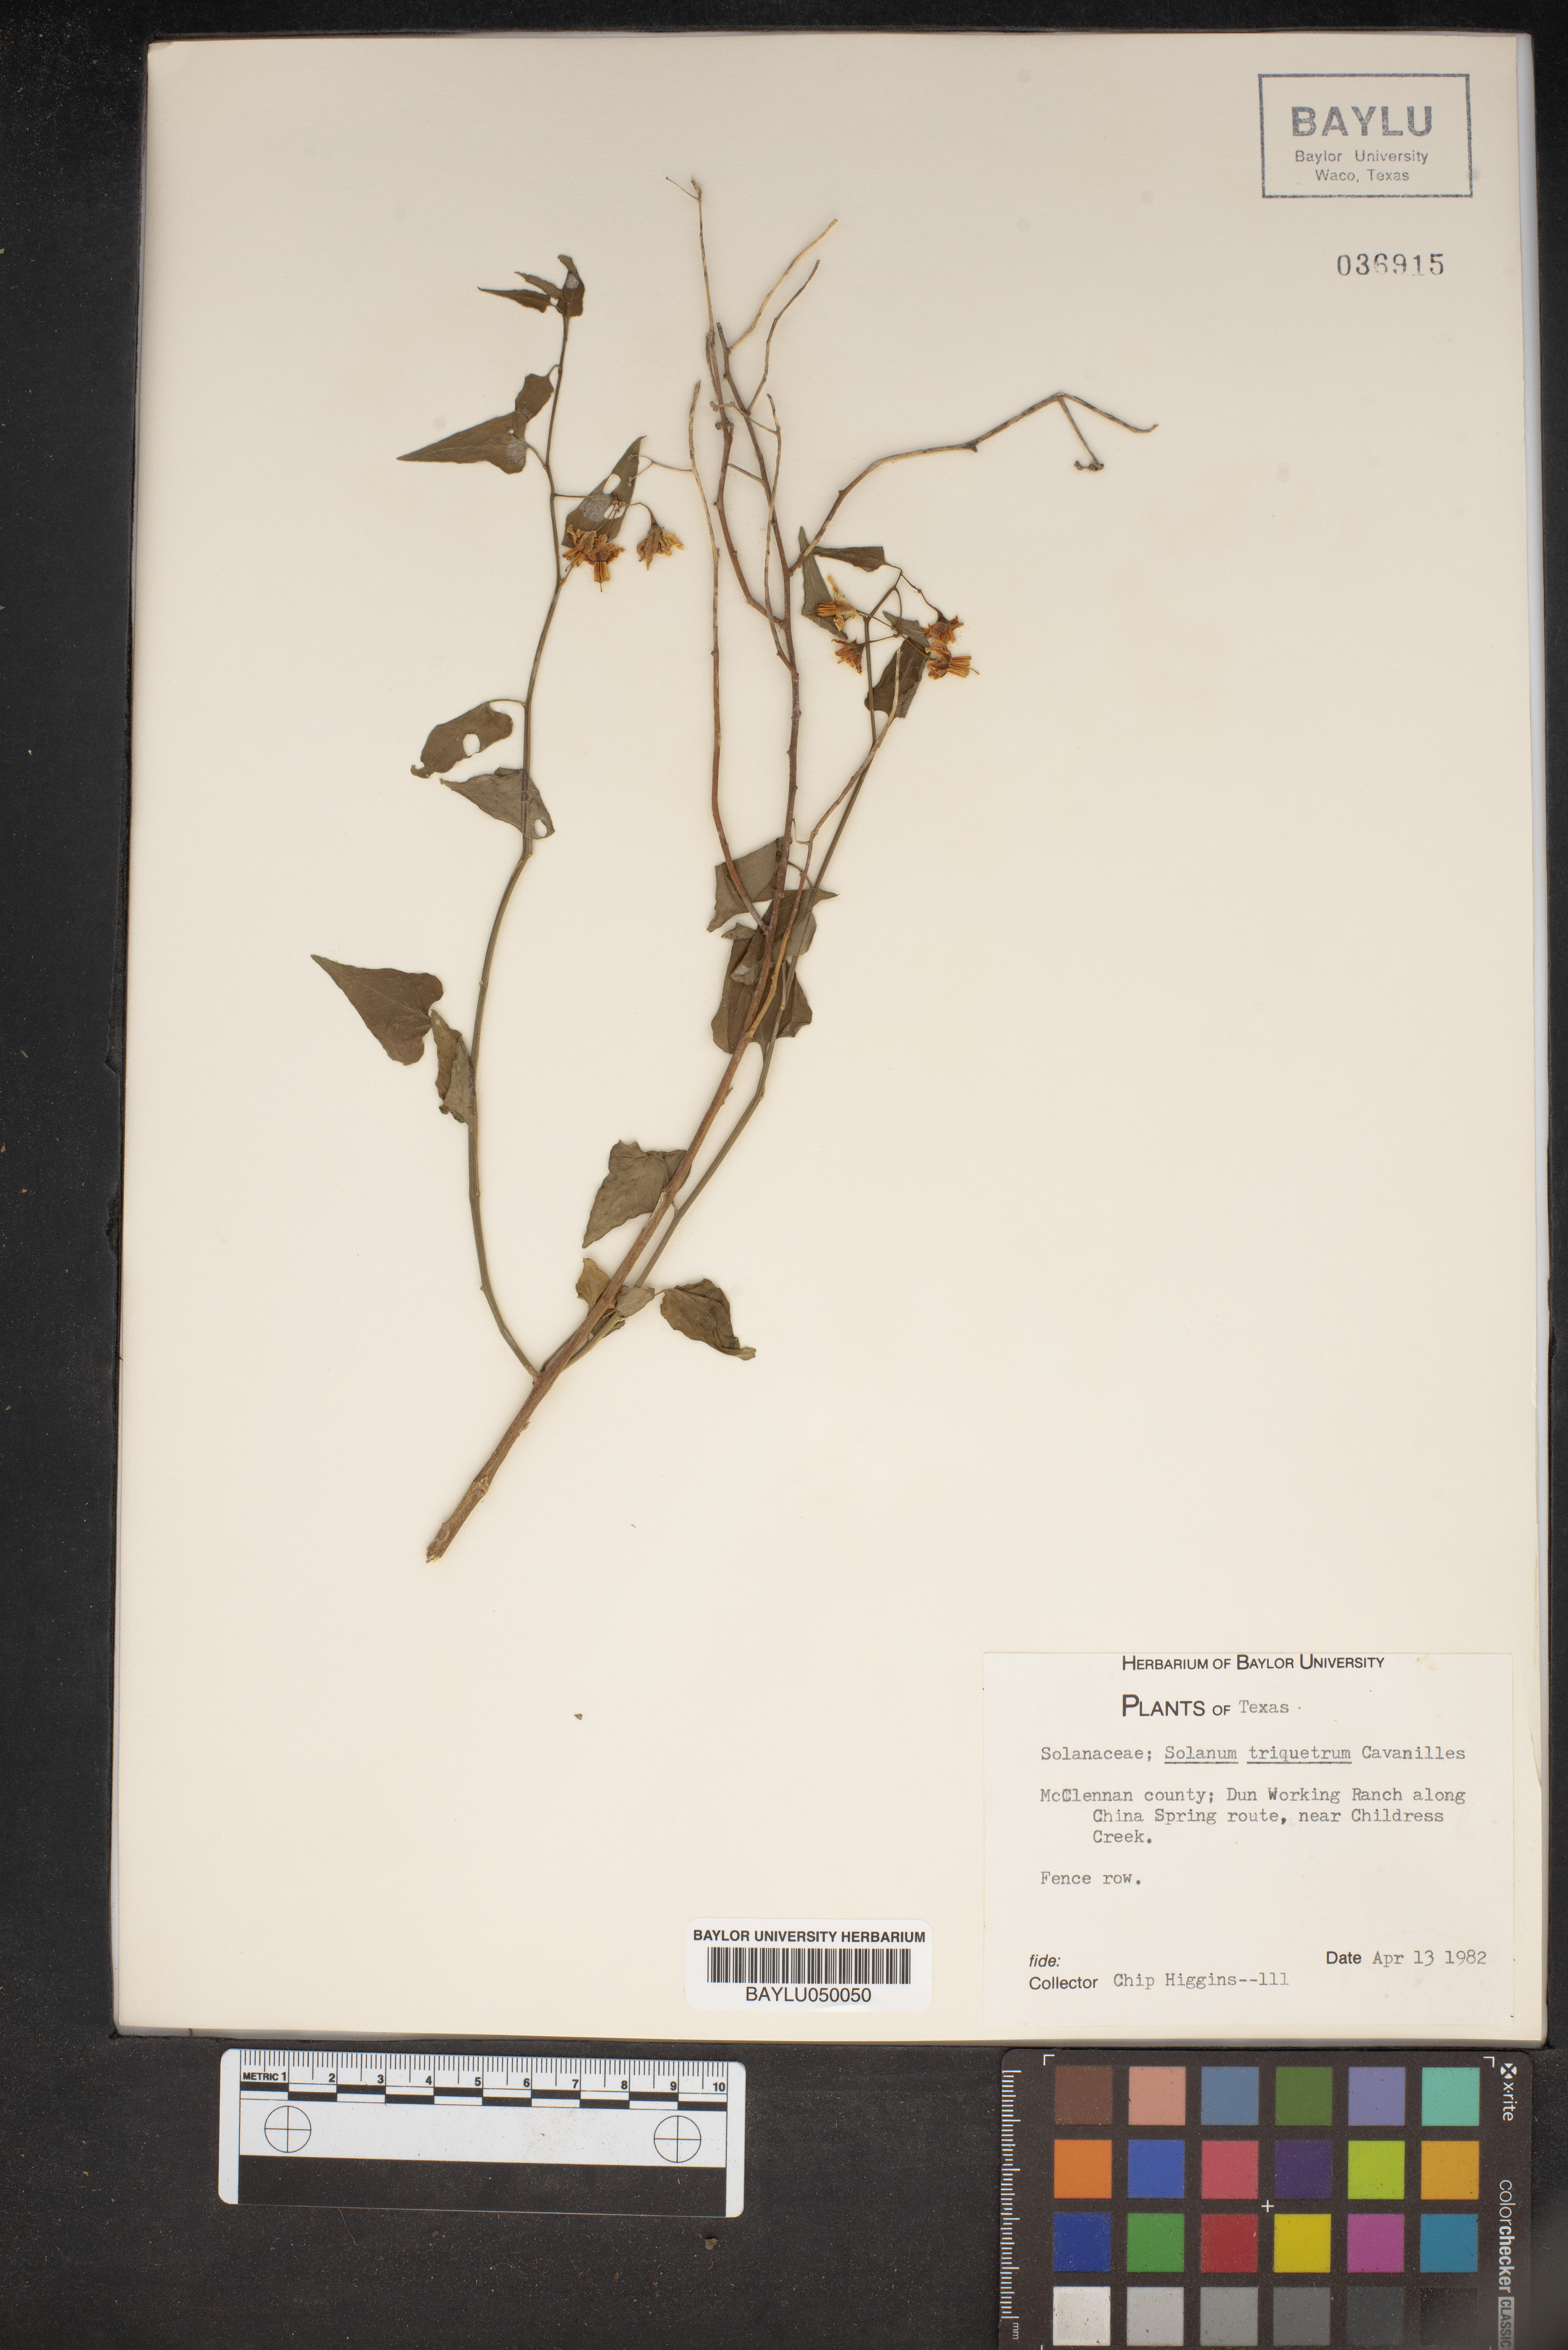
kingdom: Plantae
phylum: Tracheophyta
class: Magnoliopsida
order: Solanales
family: Solanaceae
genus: Solanum
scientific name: Solanum triquetrum
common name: Texas nightshade
